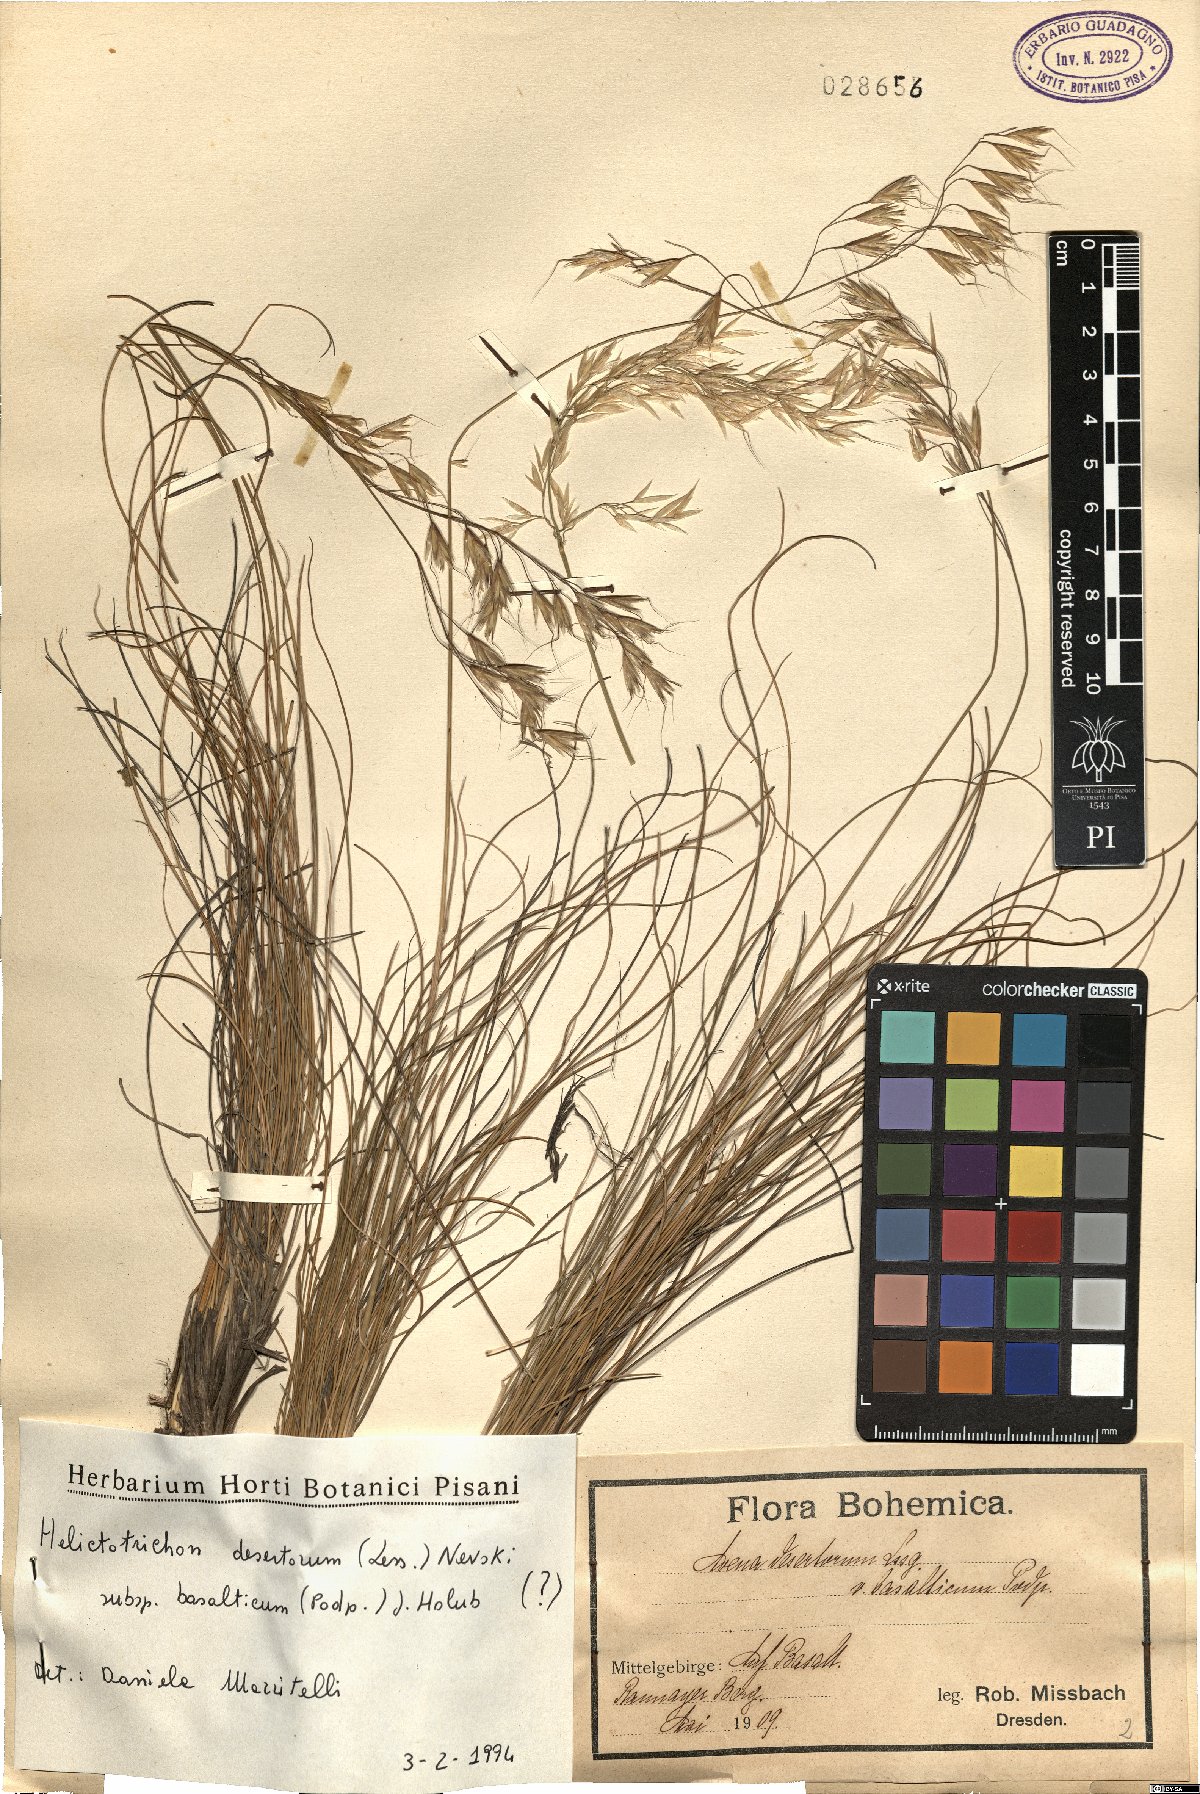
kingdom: Plantae
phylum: Tracheophyta
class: Liliopsida
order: Poales
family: Poaceae
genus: Helictotrichon
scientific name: Helictotrichon desertorum
